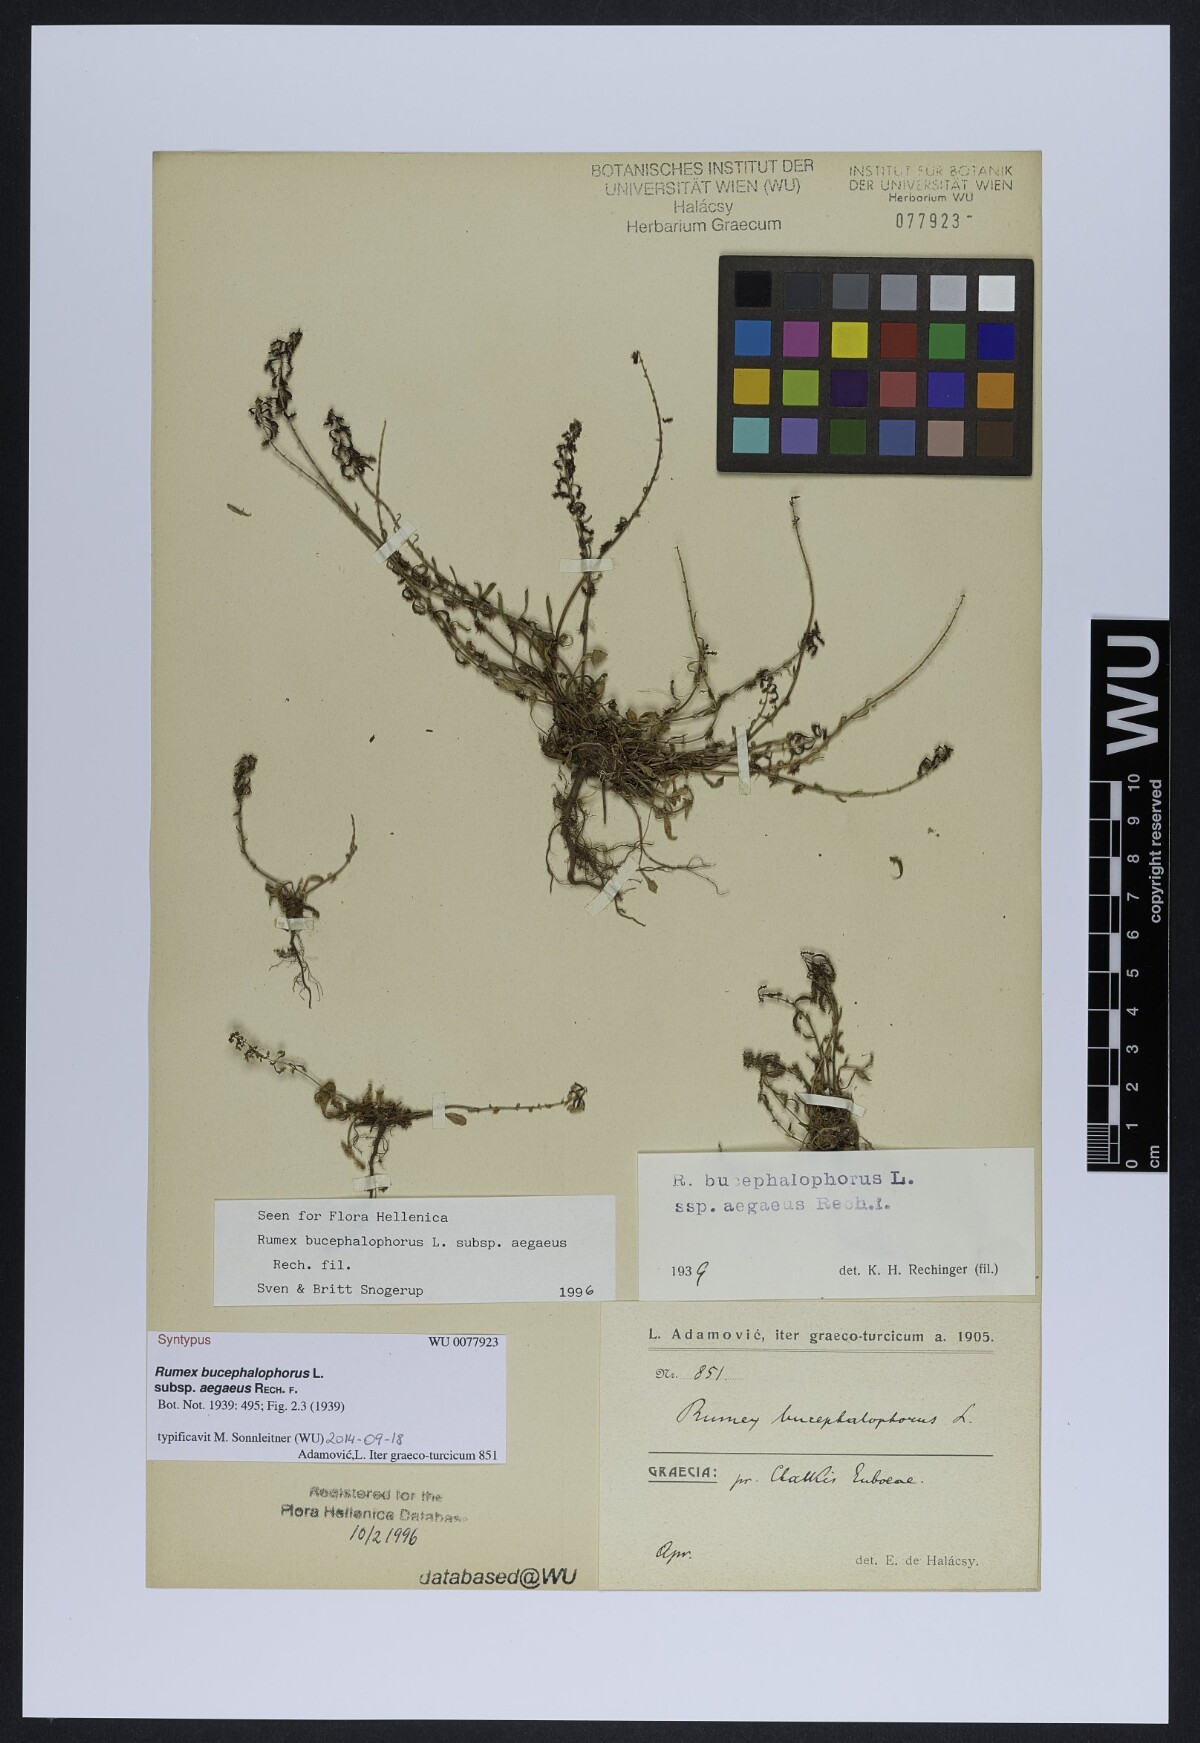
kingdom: Plantae
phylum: Tracheophyta
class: Magnoliopsida
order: Caryophyllales
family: Polygonaceae
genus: Rumex
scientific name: Rumex bucephalophorus
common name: Red dock
